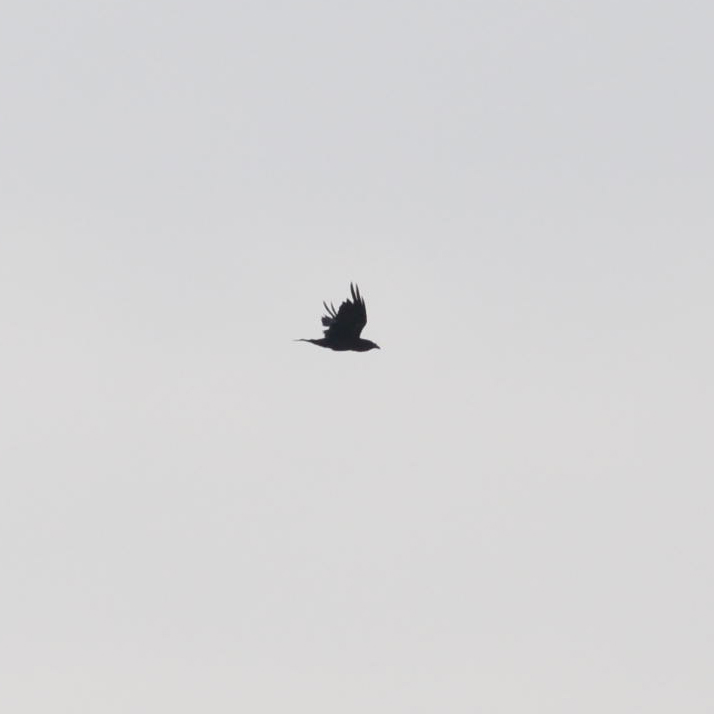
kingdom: Animalia
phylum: Chordata
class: Aves
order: Passeriformes
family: Corvidae
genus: Corvus
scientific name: Corvus corax
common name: Common raven
